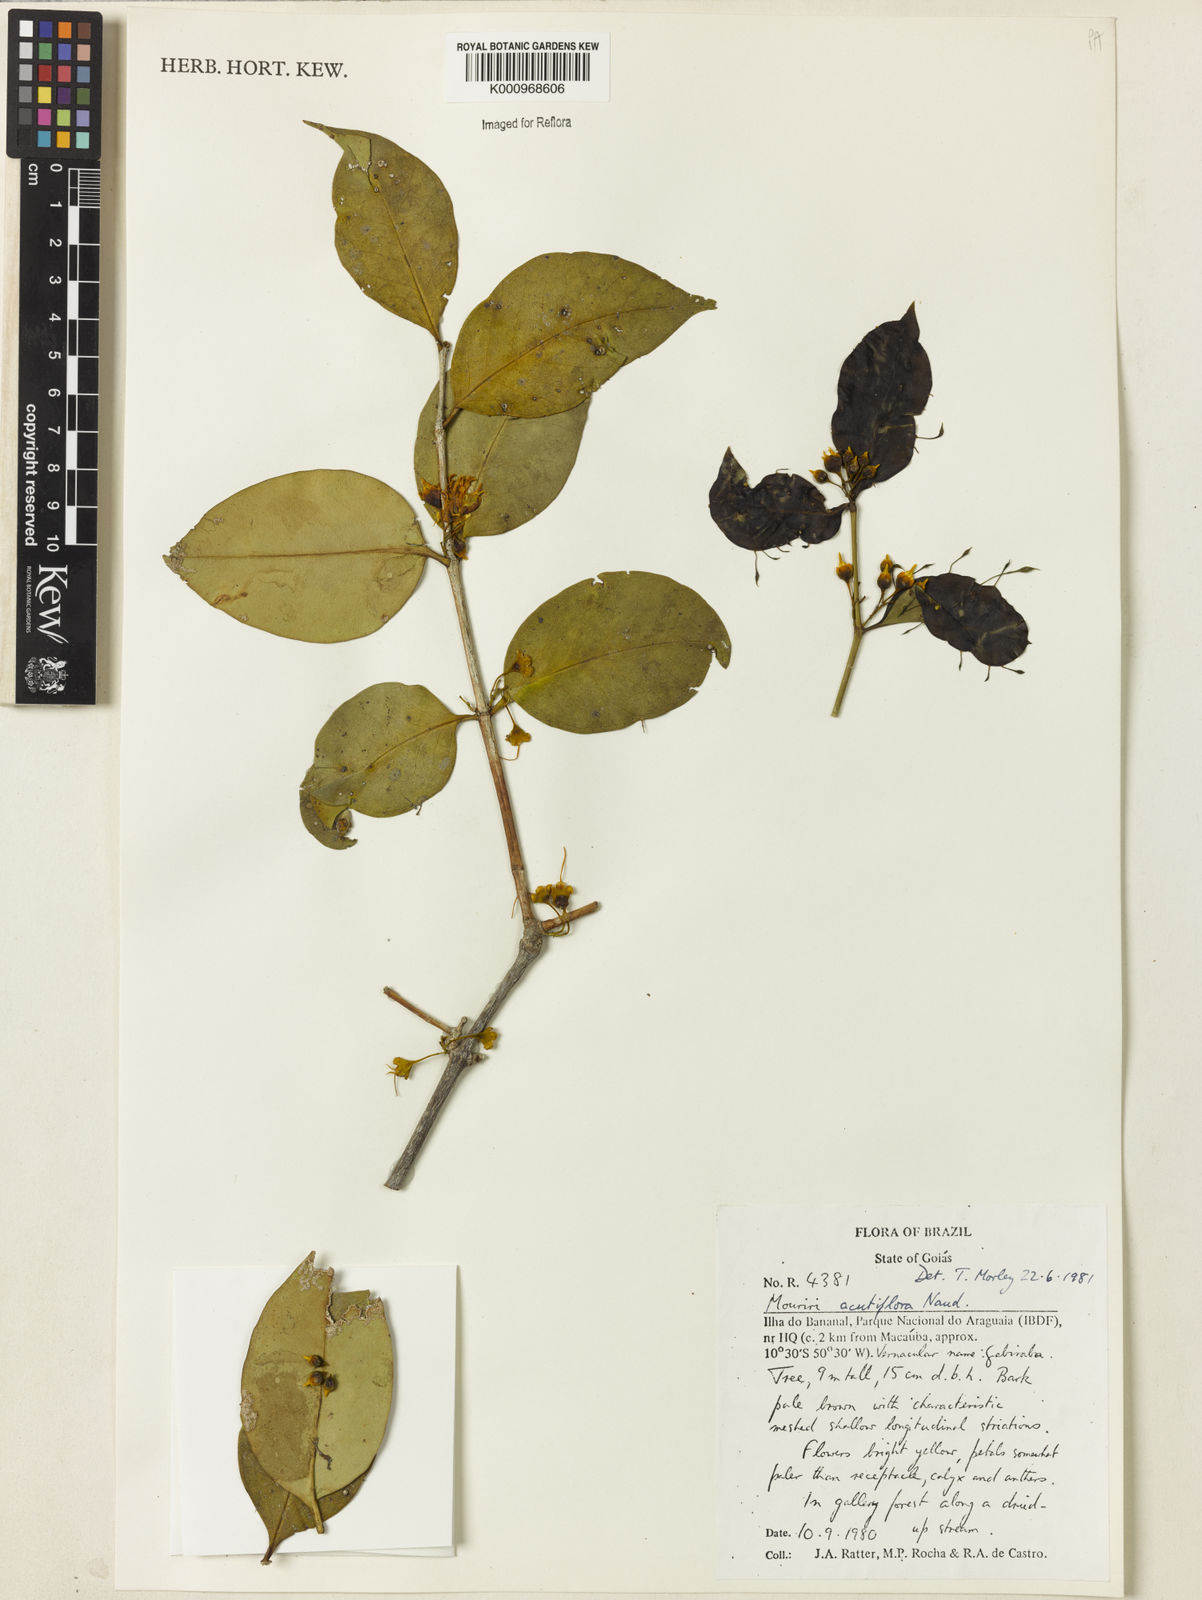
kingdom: Plantae
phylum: Tracheophyta
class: Magnoliopsida
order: Myrtales
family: Melastomataceae
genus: Mouriri
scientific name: Mouriri acutiflora
